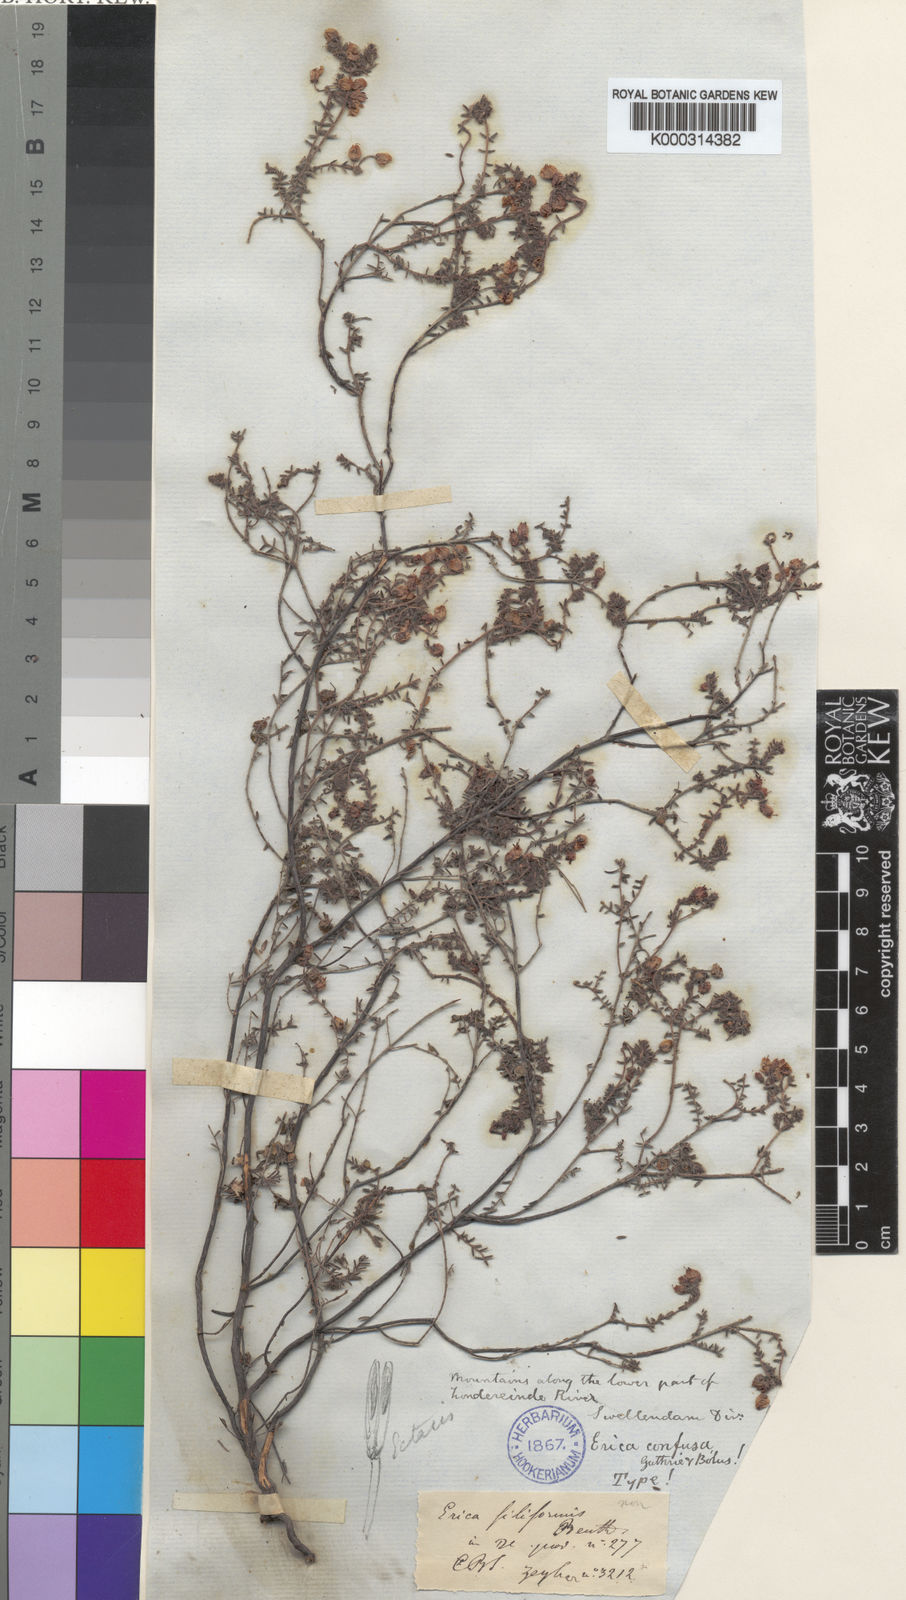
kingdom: Plantae
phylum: Tracheophyta
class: Magnoliopsida
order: Ericales
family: Ericaceae
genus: Erica
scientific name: Erica permutata
